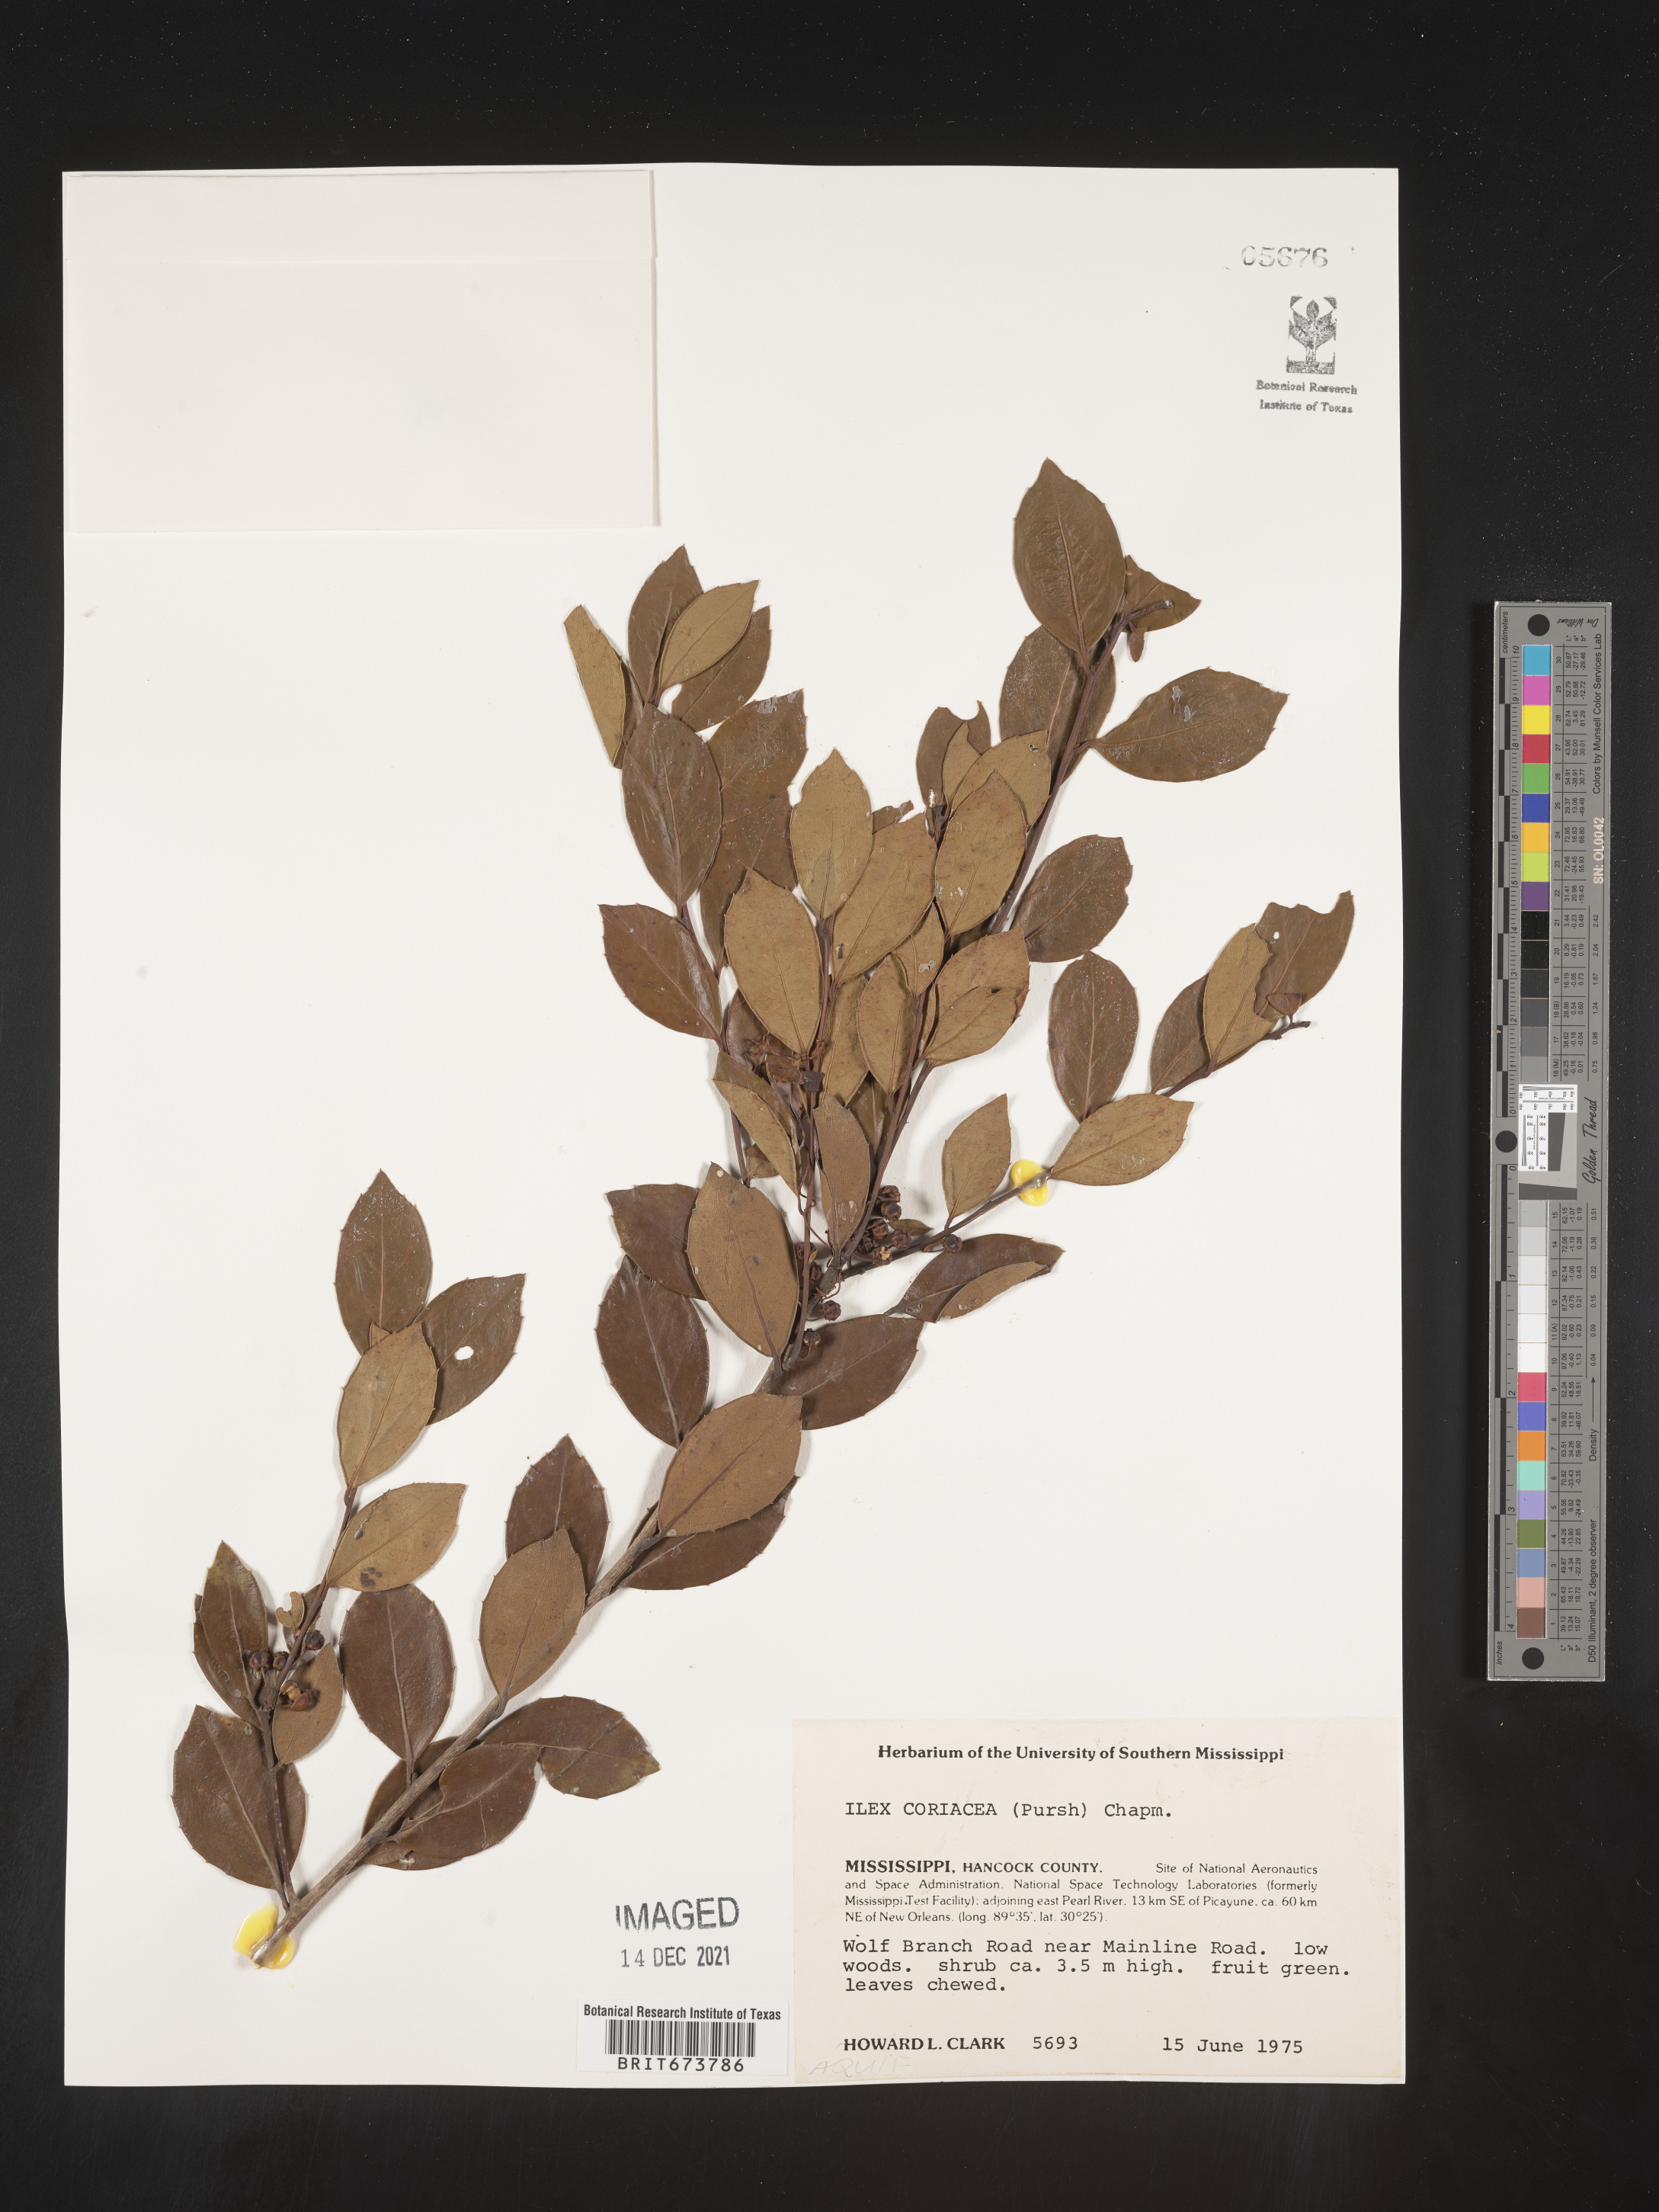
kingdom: Plantae
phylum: Tracheophyta
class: Magnoliopsida
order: Aquifoliales
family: Aquifoliaceae
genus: Ilex
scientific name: Ilex coriacea
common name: Sweet gallberry
